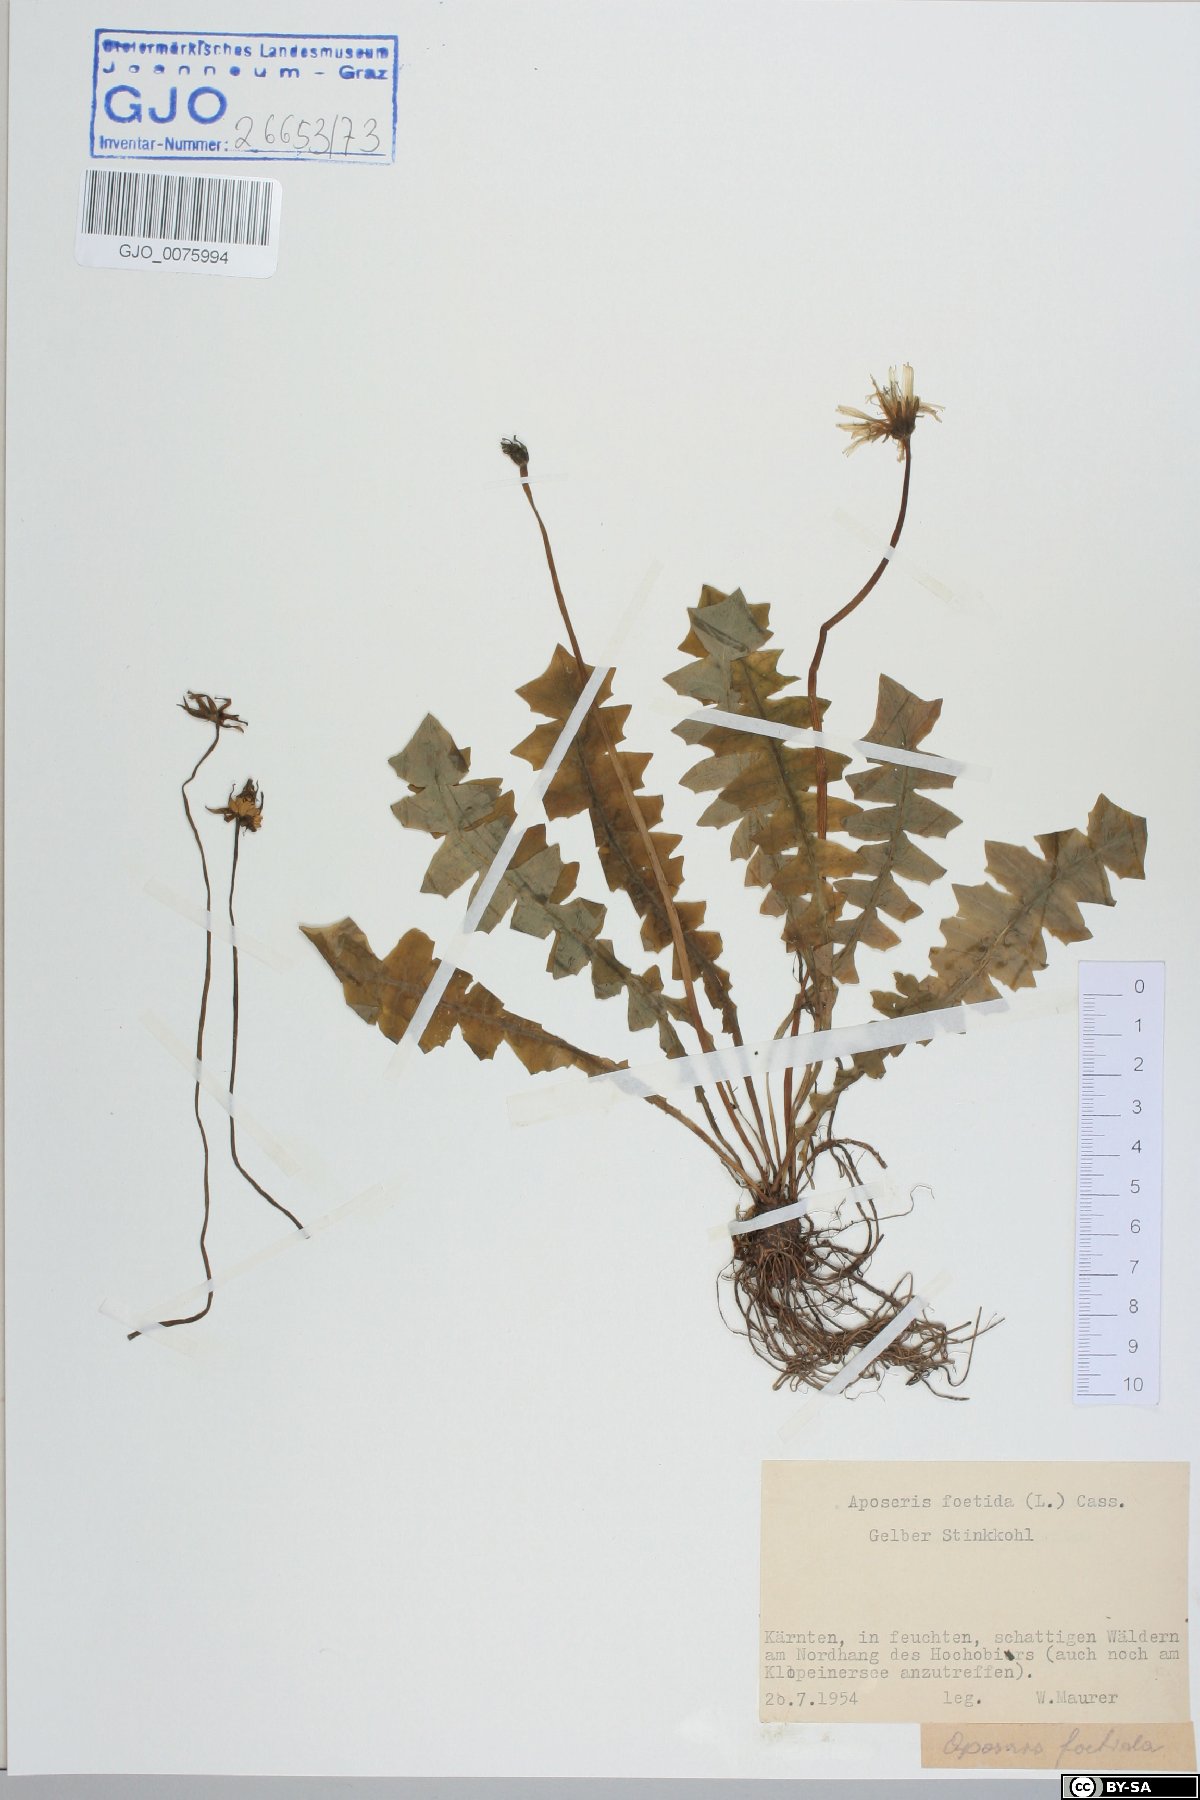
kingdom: Plantae
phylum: Tracheophyta
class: Magnoliopsida
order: Asterales
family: Asteraceae
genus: Aposeris
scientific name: Aposeris foetida
